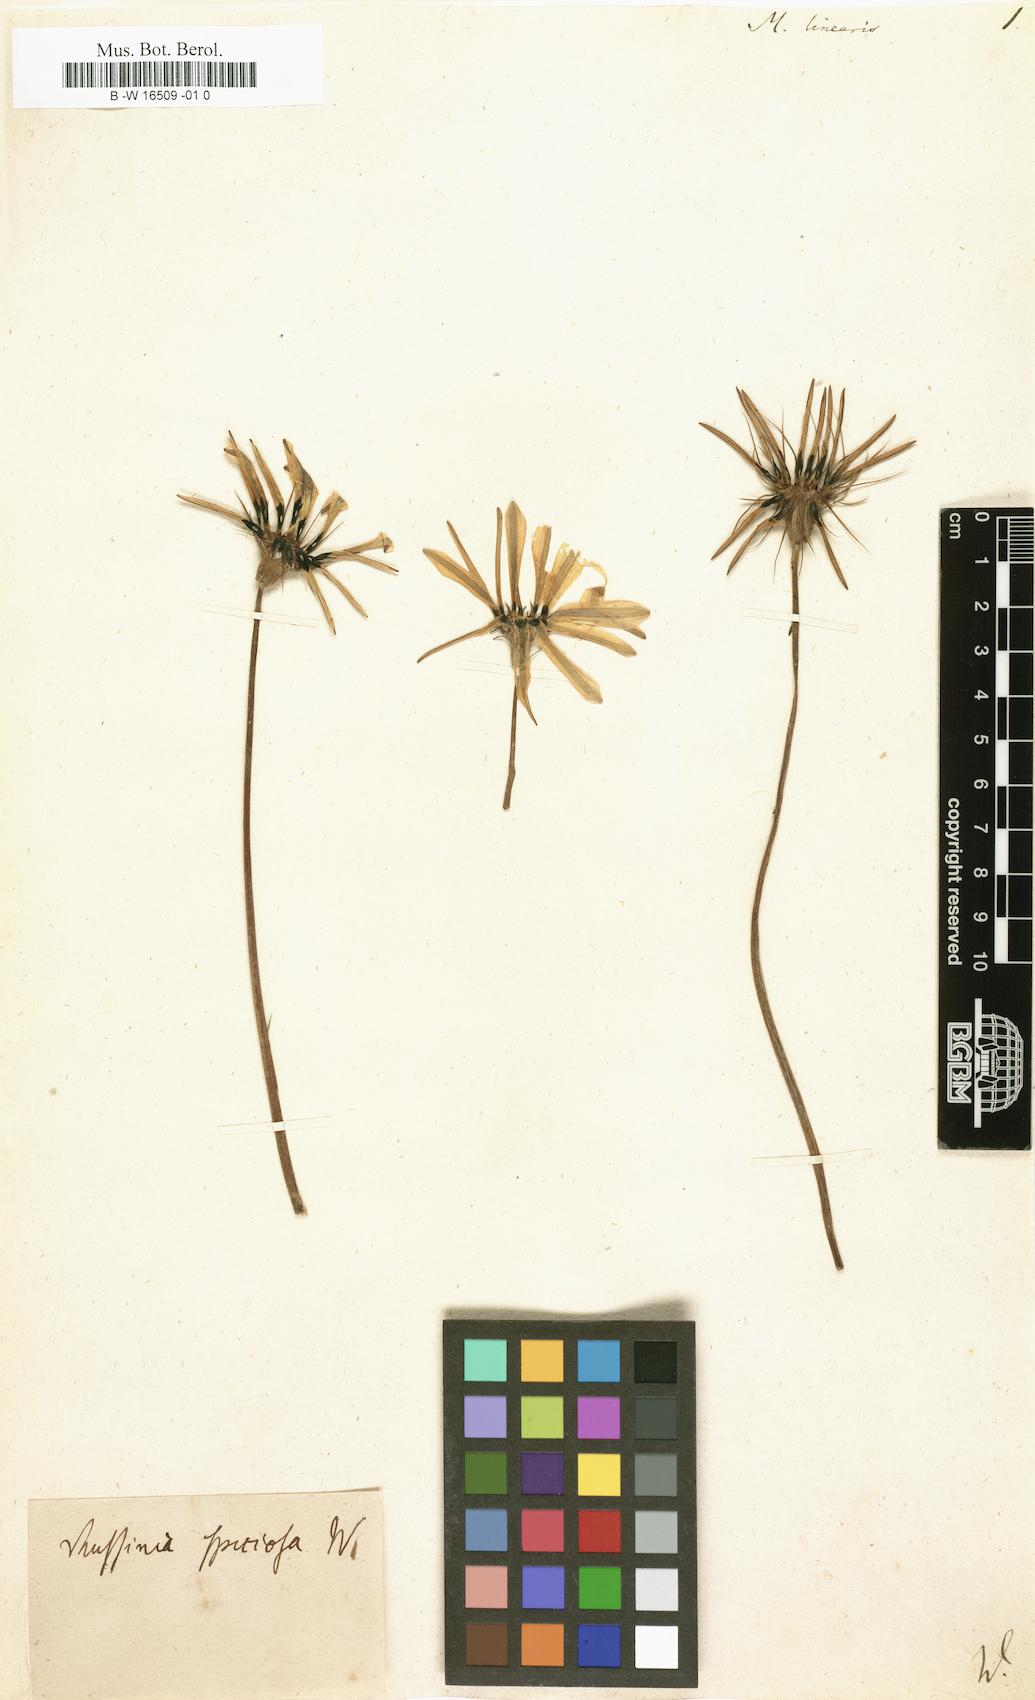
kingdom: Plantae
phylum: Tracheophyta
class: Magnoliopsida
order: Asterales
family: Asteraceae
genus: Gazania
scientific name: Gazania linearis
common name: Treasureflower
